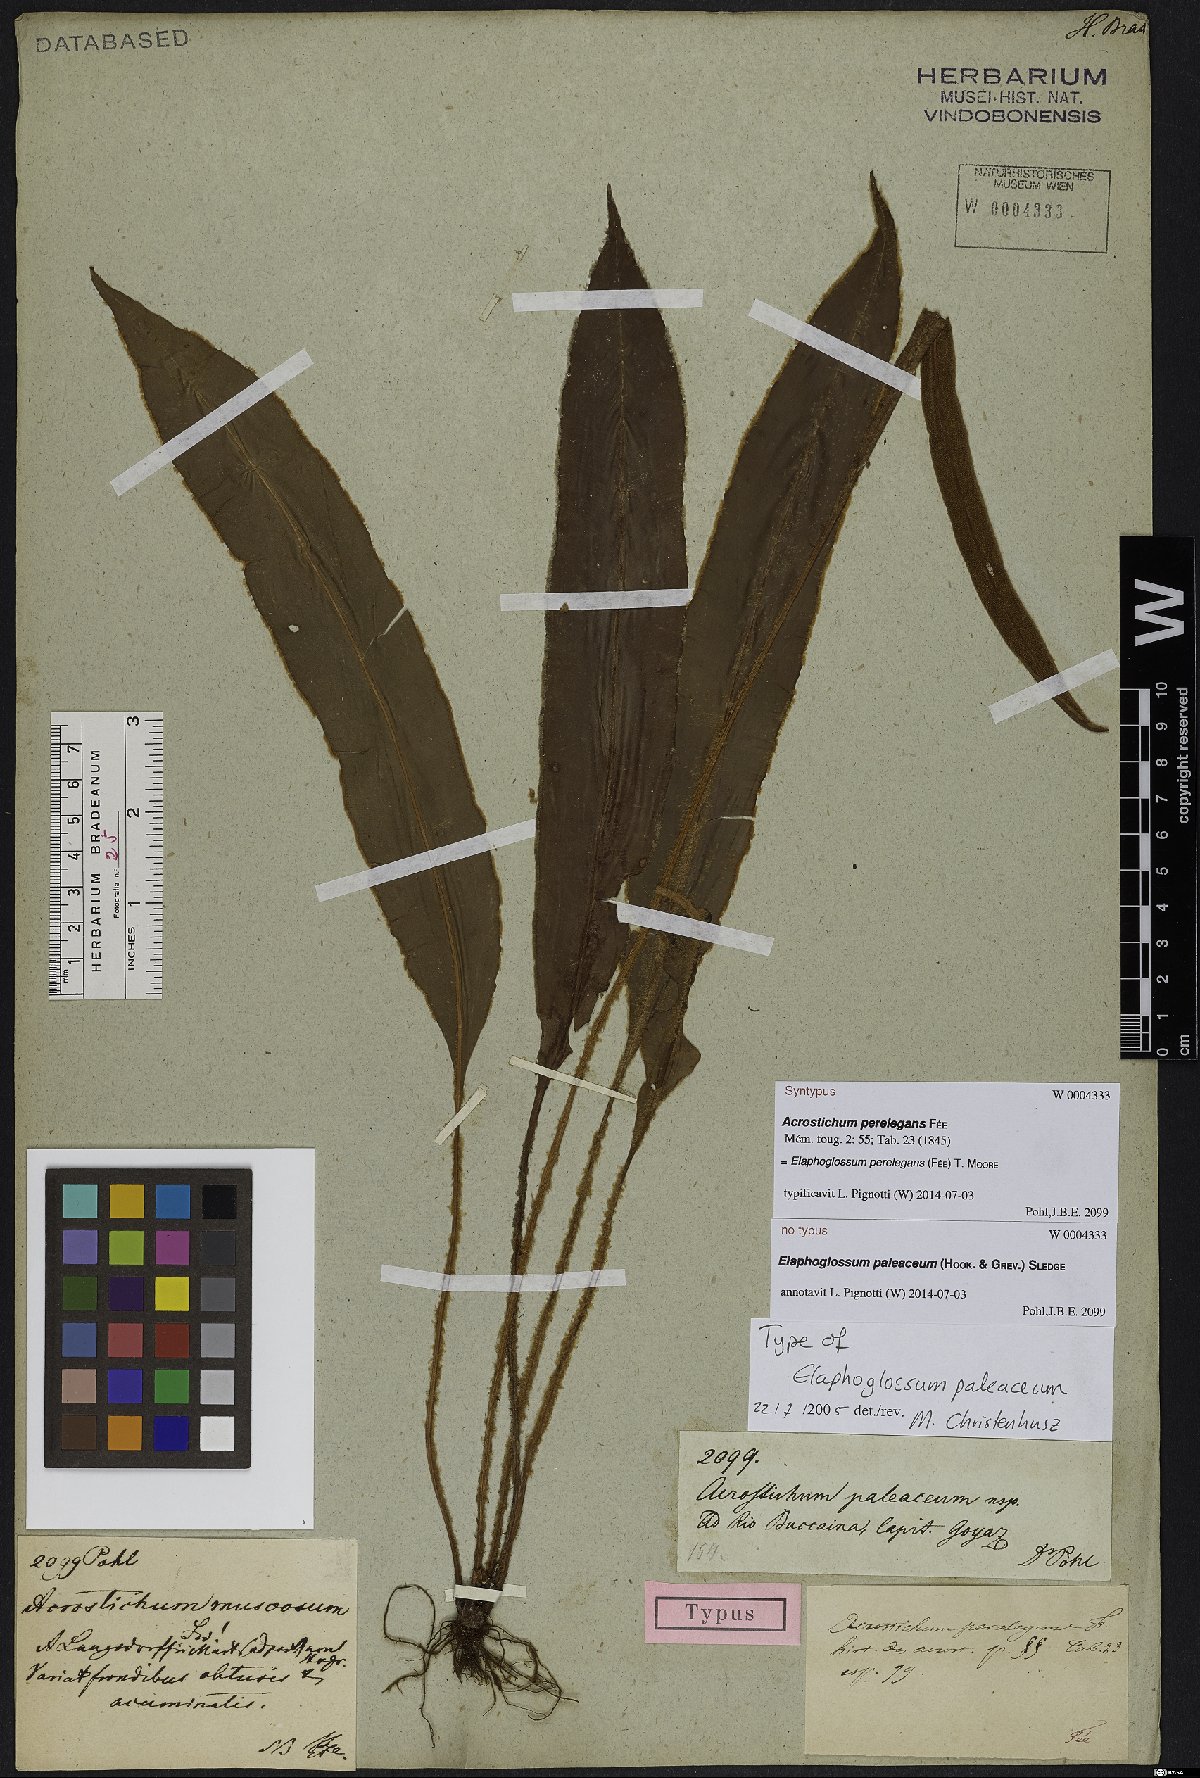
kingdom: Plantae
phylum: Tracheophyta
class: Polypodiopsida
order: Polypodiales
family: Dryopteridaceae
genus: Elaphoglossum
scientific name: Elaphoglossum perelegans
